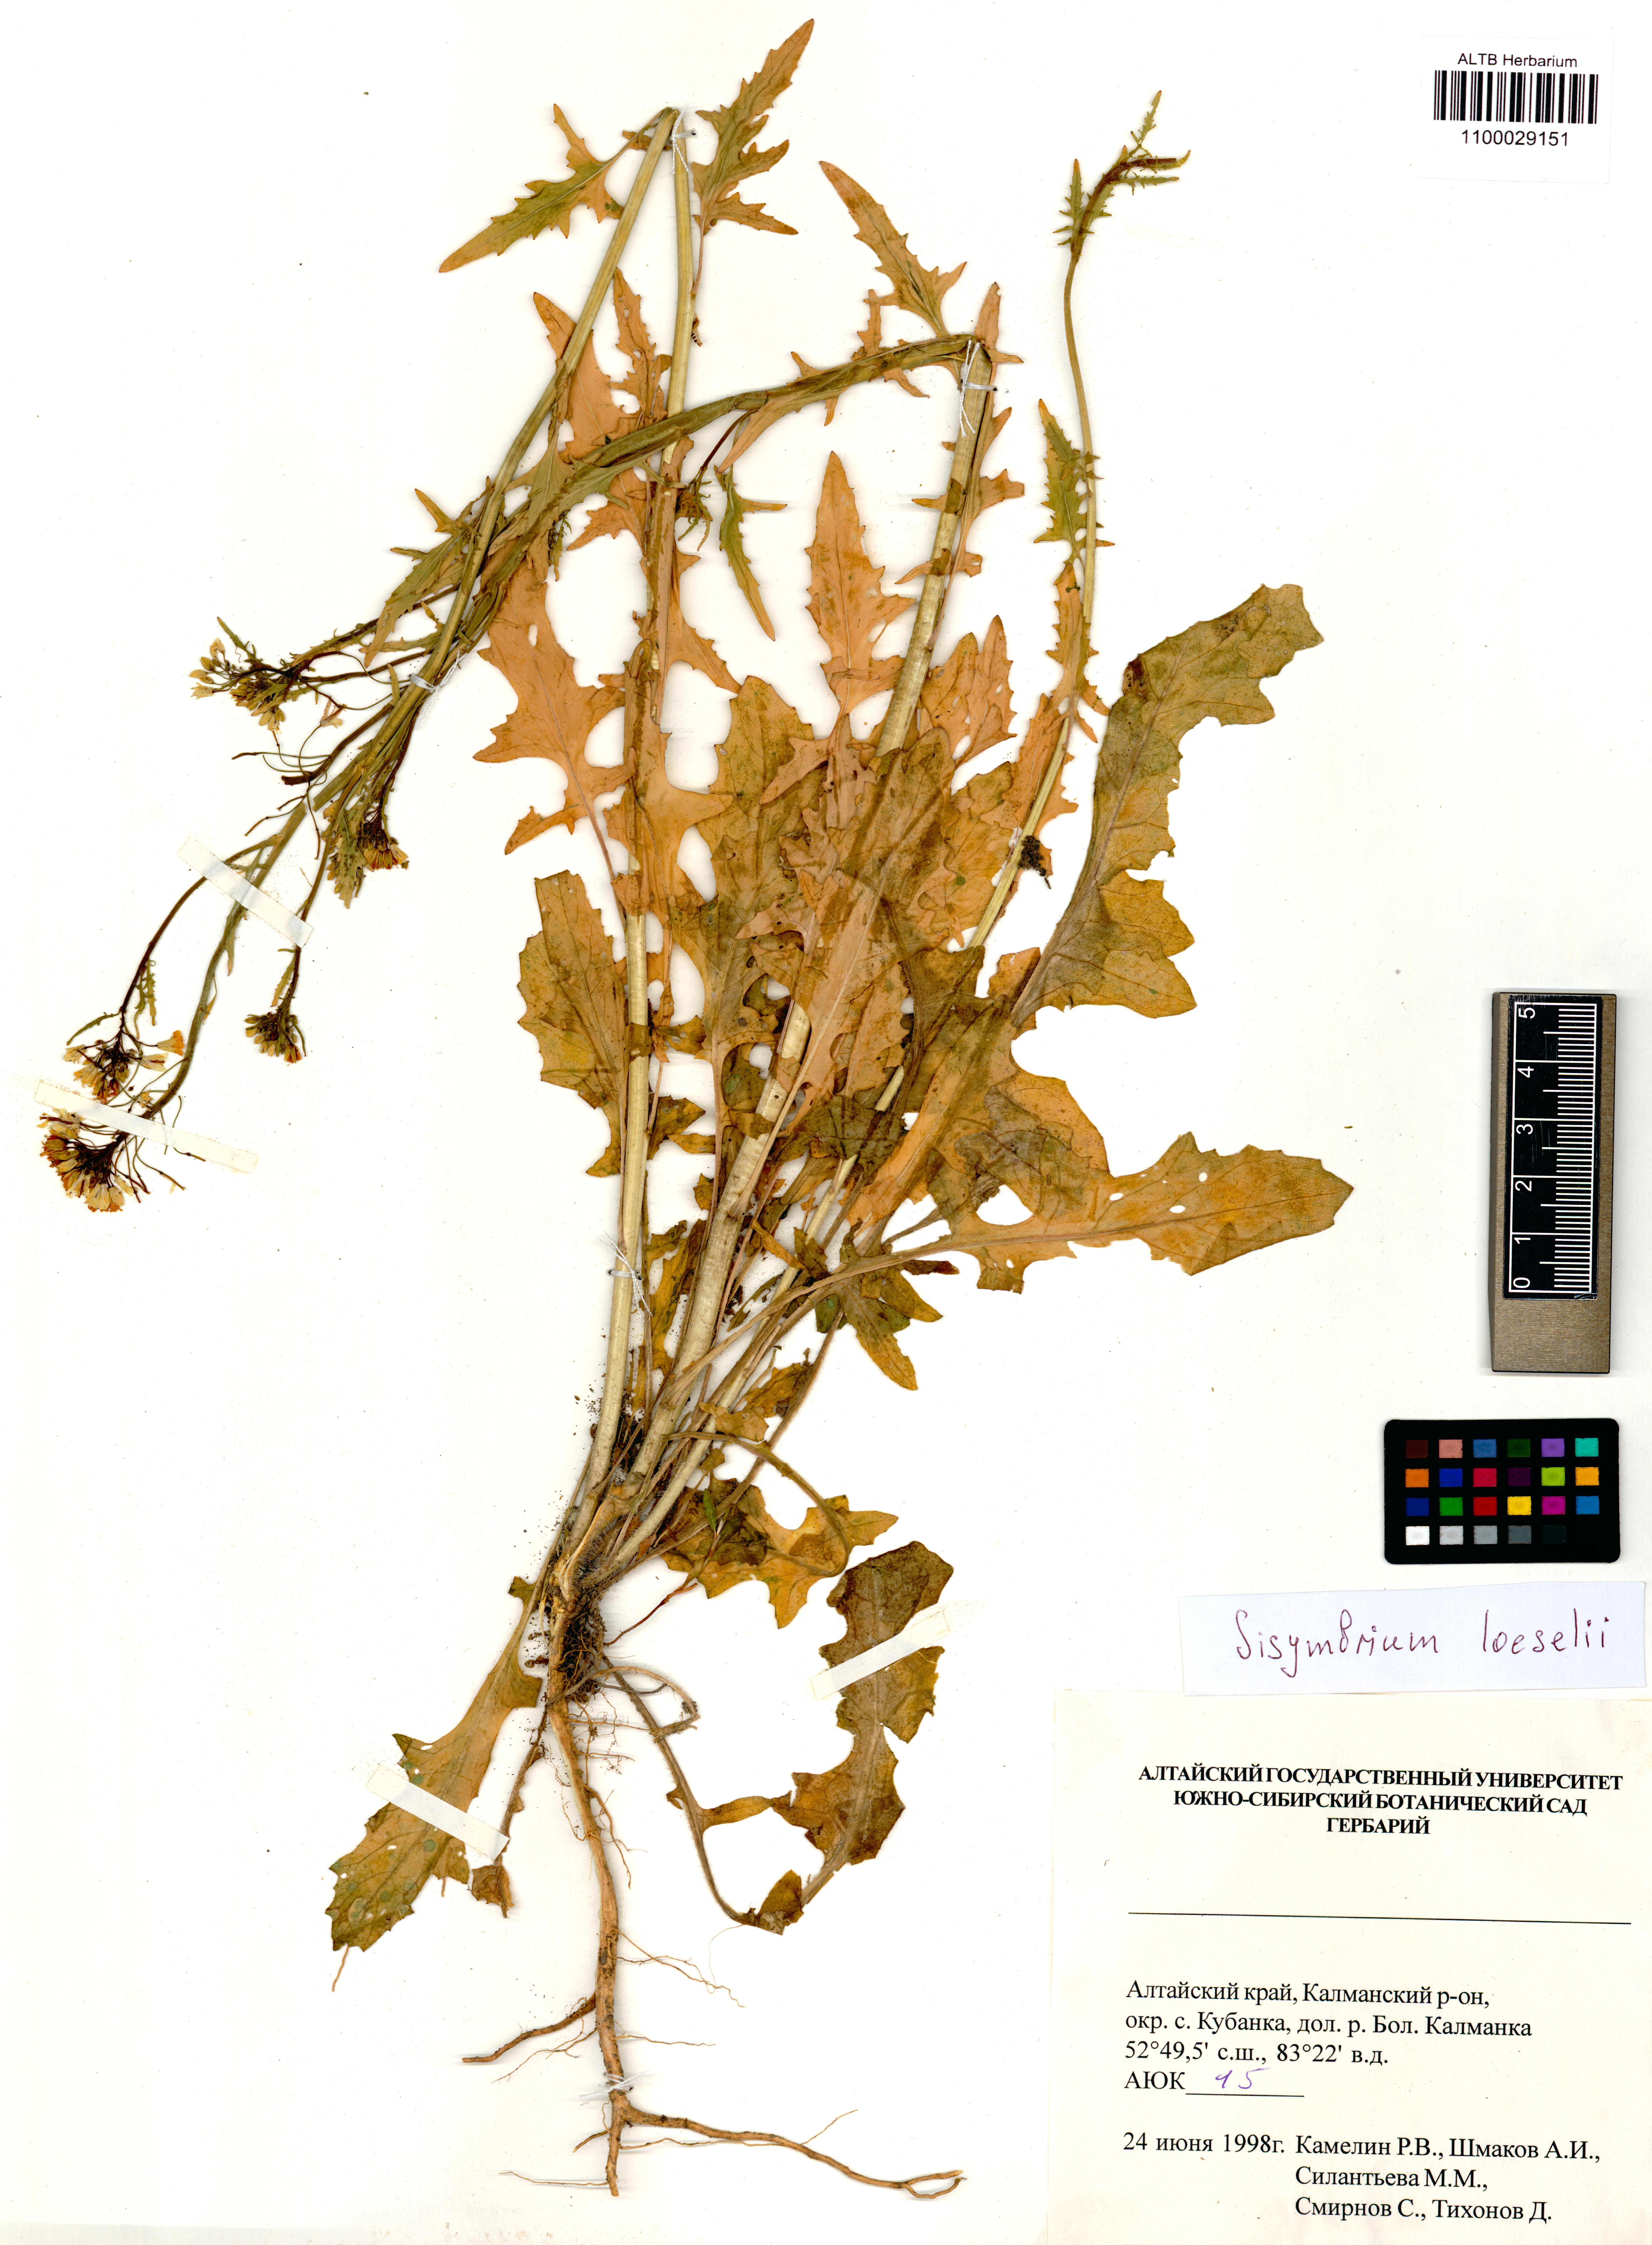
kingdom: Plantae
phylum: Tracheophyta
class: Magnoliopsida
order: Brassicales
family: Brassicaceae
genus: Sisymbrium
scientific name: Sisymbrium loeselii
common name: False london-rocket
